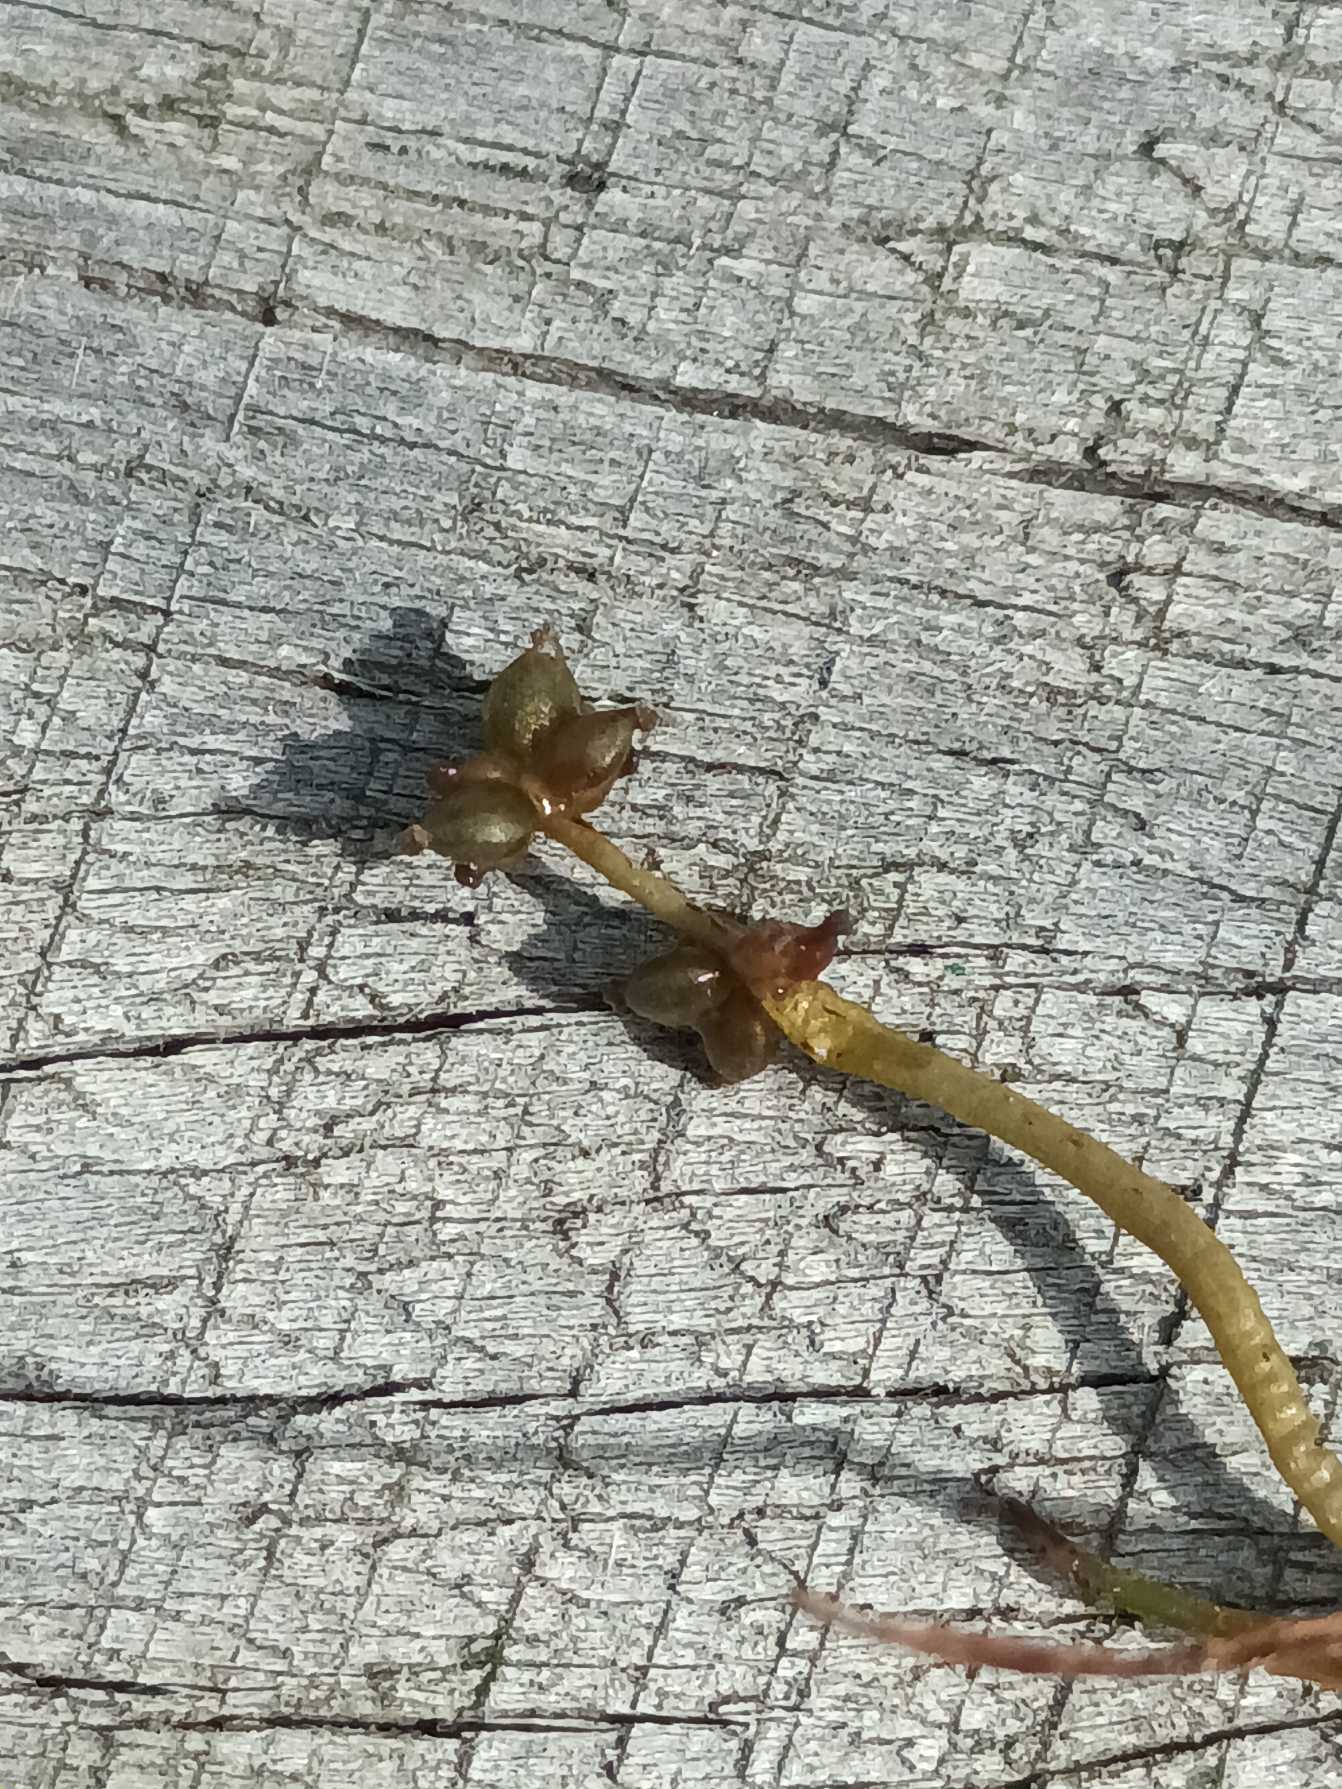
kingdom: Plantae
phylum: Tracheophyta
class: Liliopsida
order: Alismatales
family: Potamogetonaceae
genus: Potamogeton
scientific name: Potamogeton pusillus
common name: Spinkel vandaks
